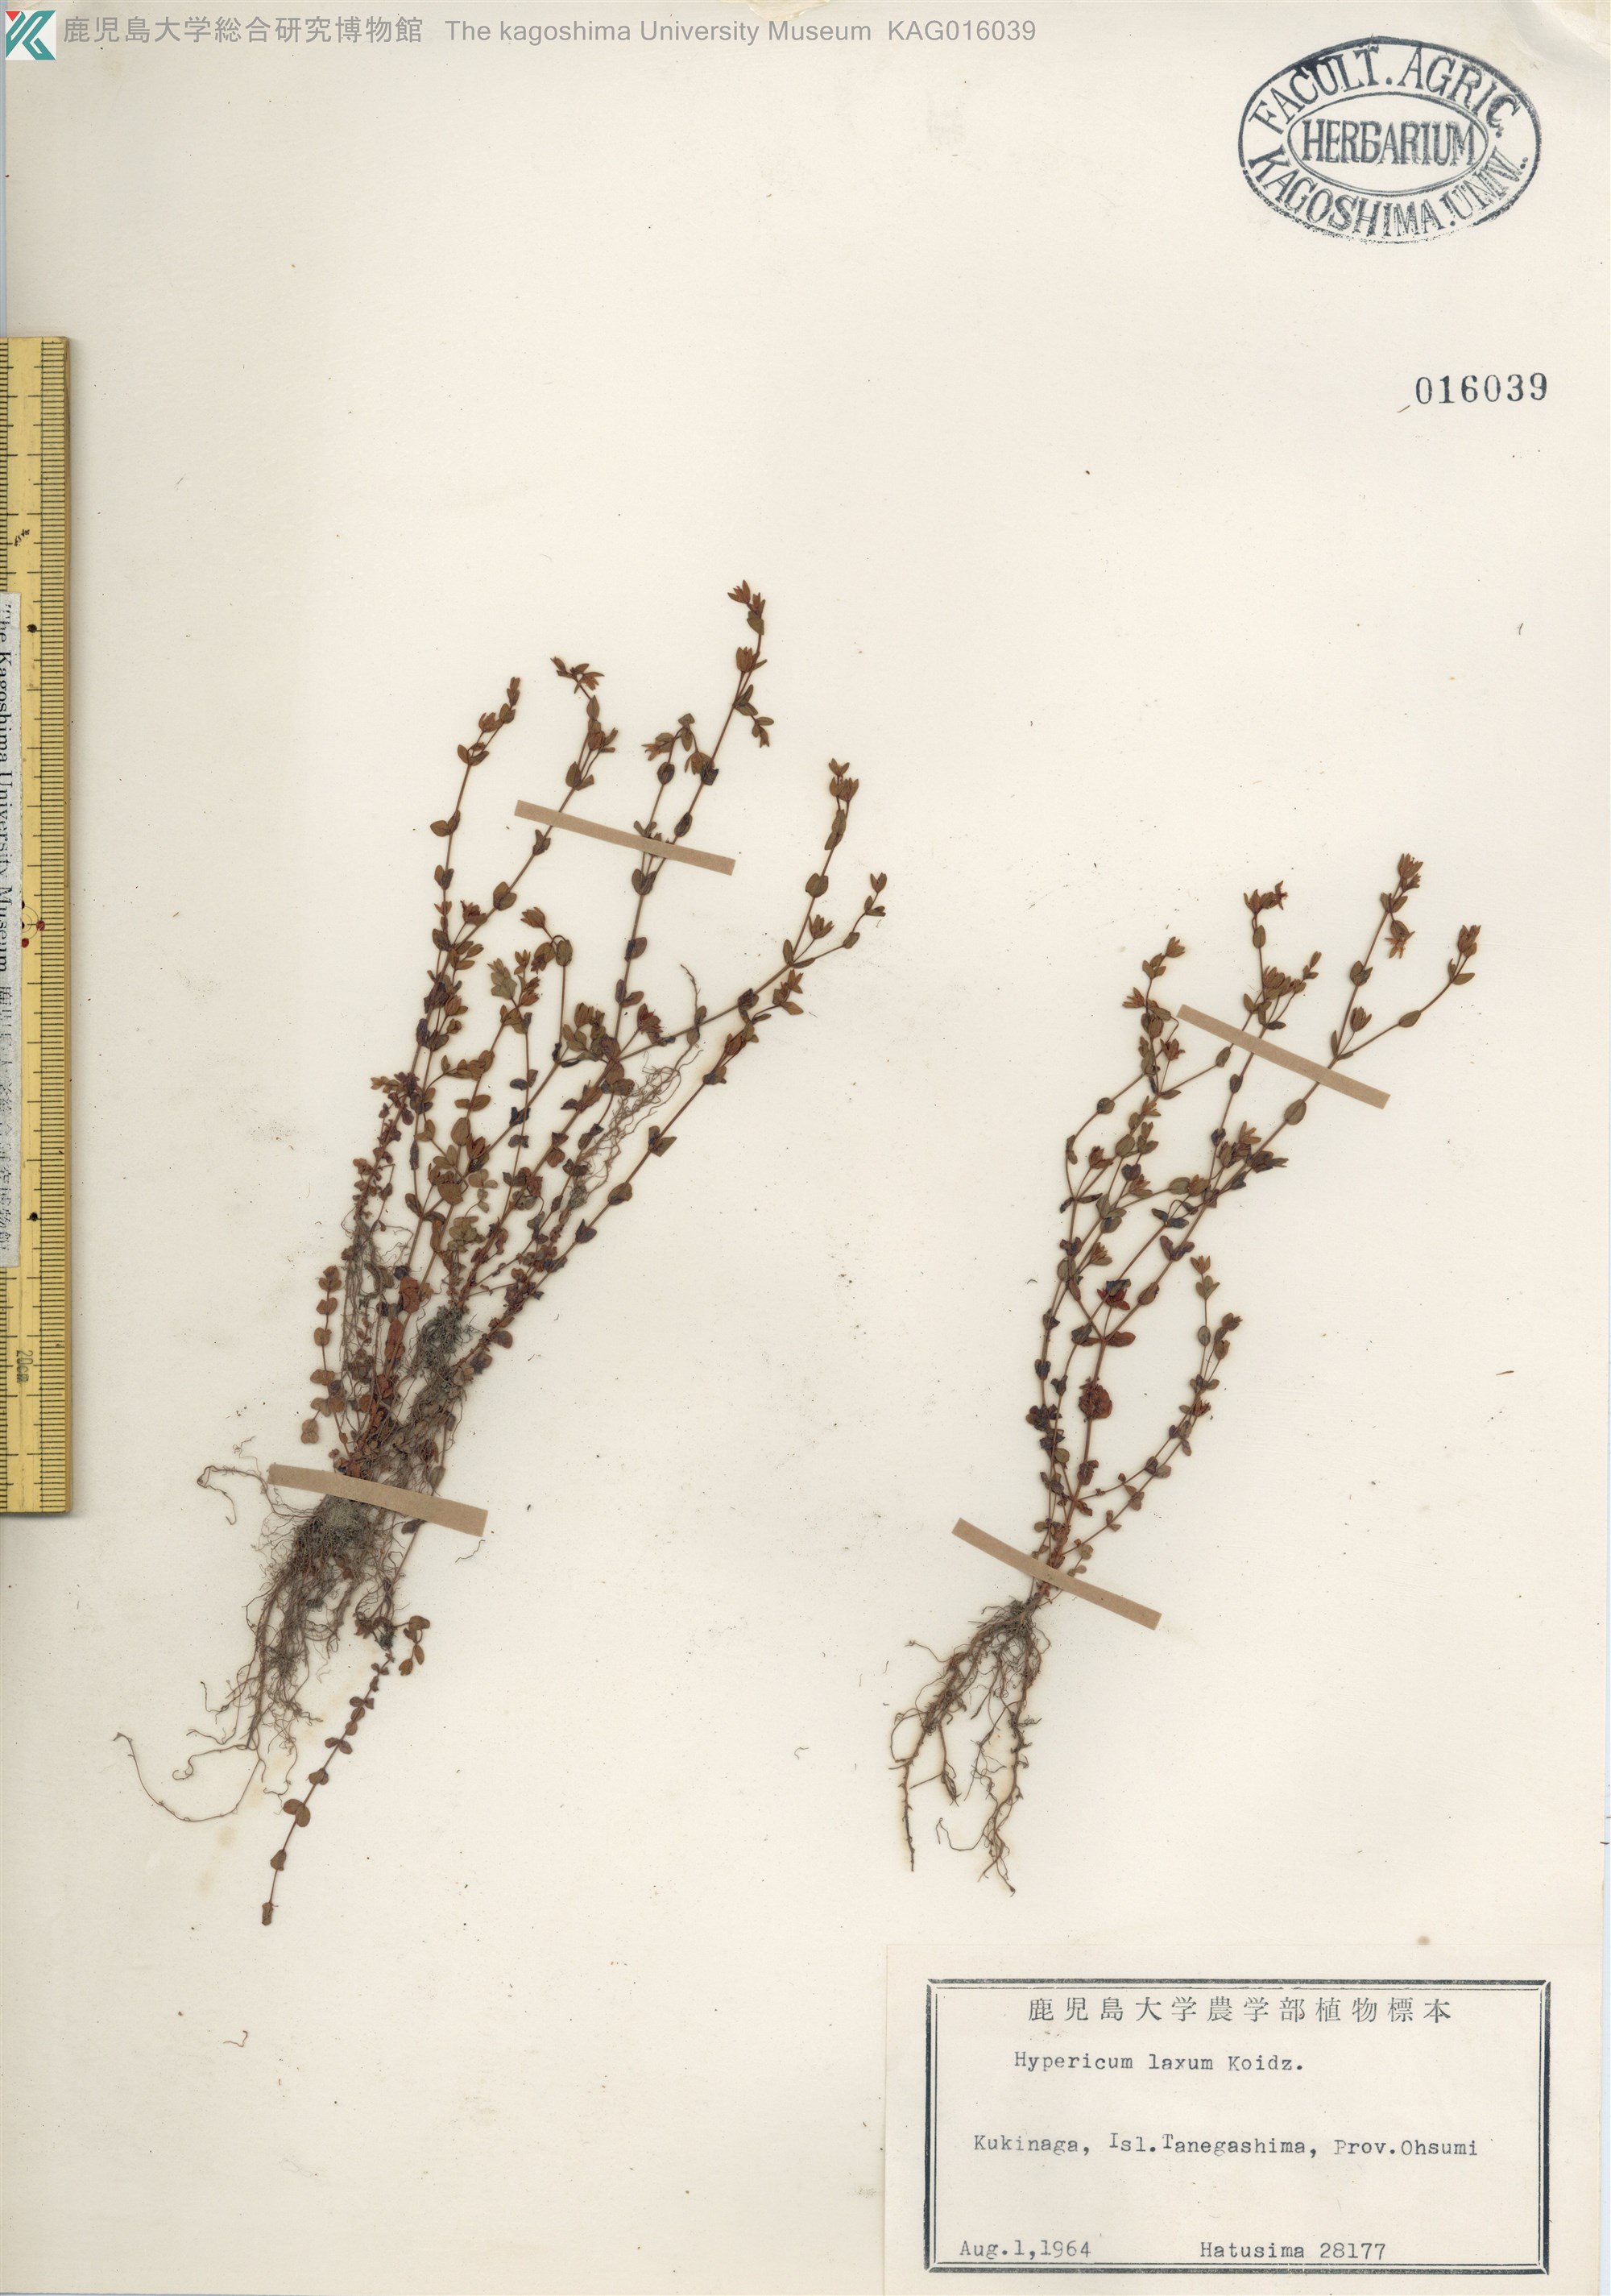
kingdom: Plantae
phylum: Tracheophyta
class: Magnoliopsida
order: Malpighiales
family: Hypericaceae
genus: Hypericum
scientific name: Hypericum japonicum
